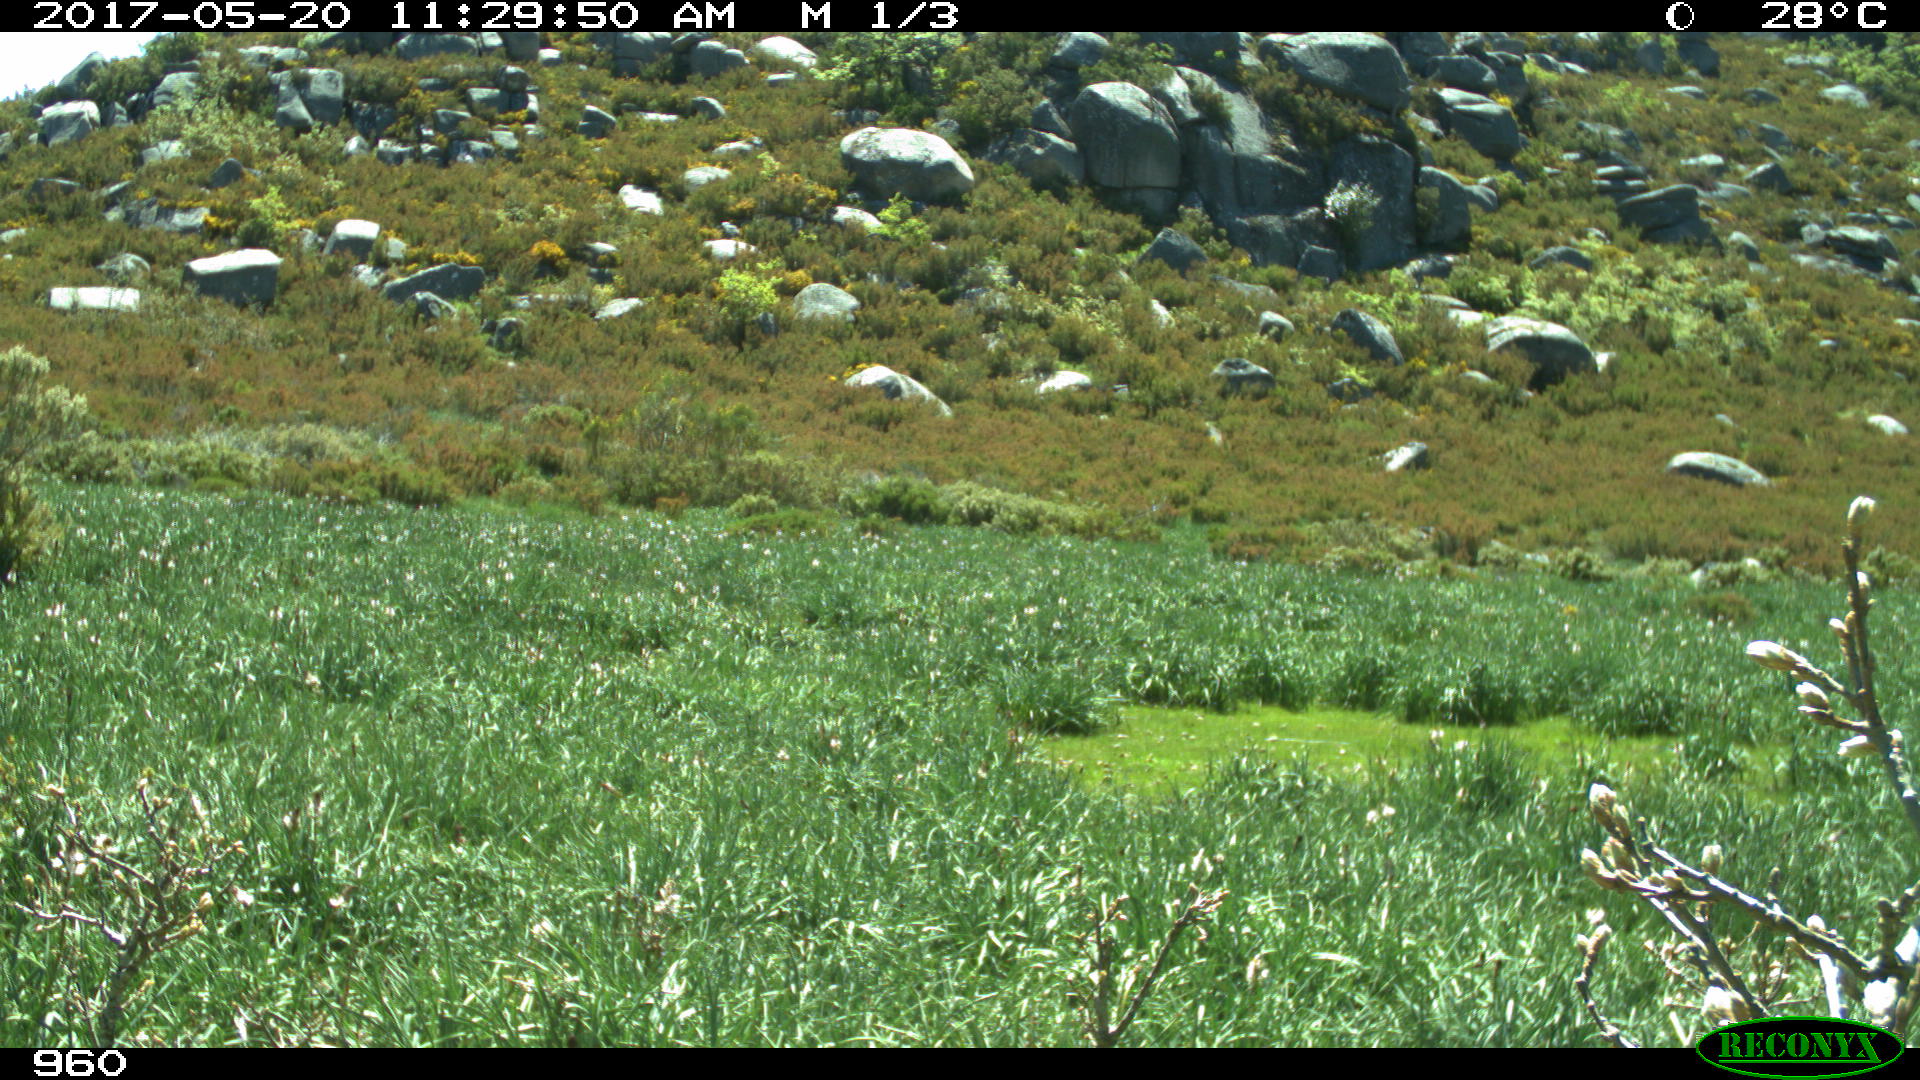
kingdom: Animalia
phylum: Chordata
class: Mammalia
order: Perissodactyla
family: Equidae
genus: Equus
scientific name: Equus caballus
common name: Horse
